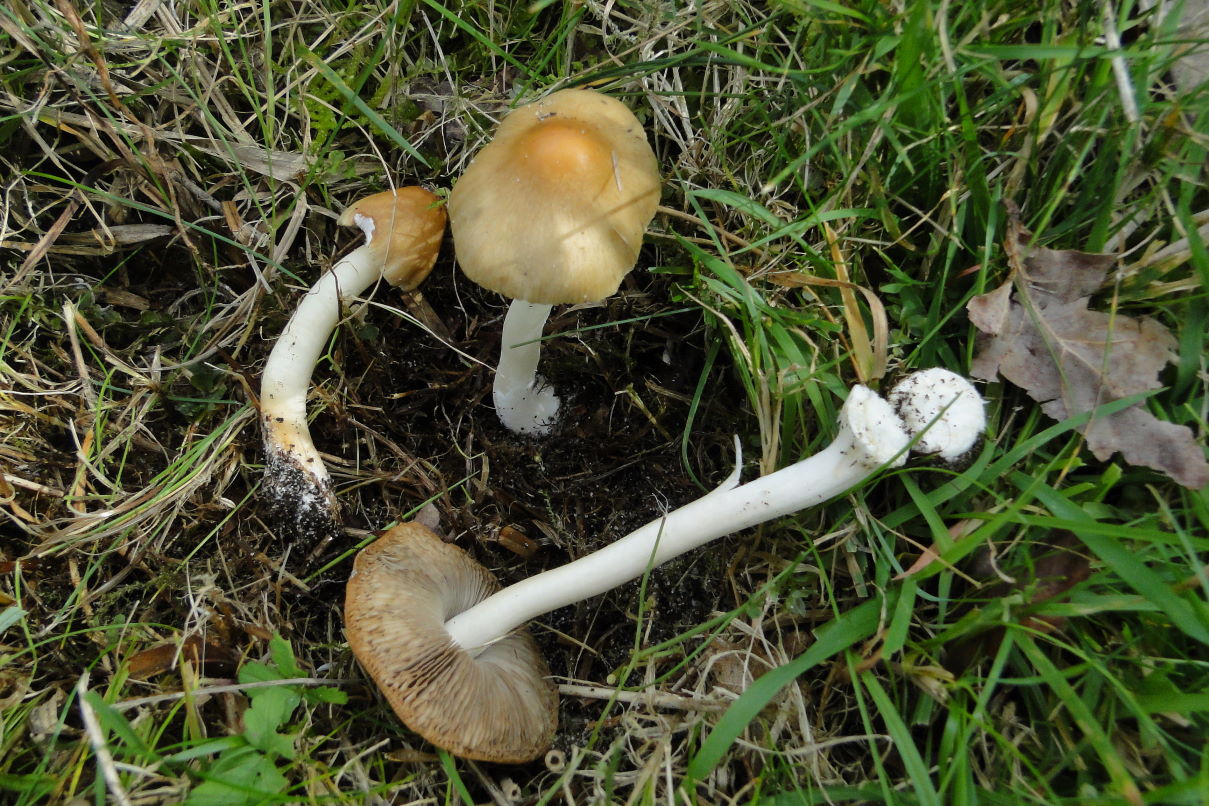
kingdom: Fungi
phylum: Basidiomycota
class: Agaricomycetes
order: Agaricales
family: Inocybaceae
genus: Inocybe
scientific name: Inocybe mixtilis
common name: randknoldet trævlhat
